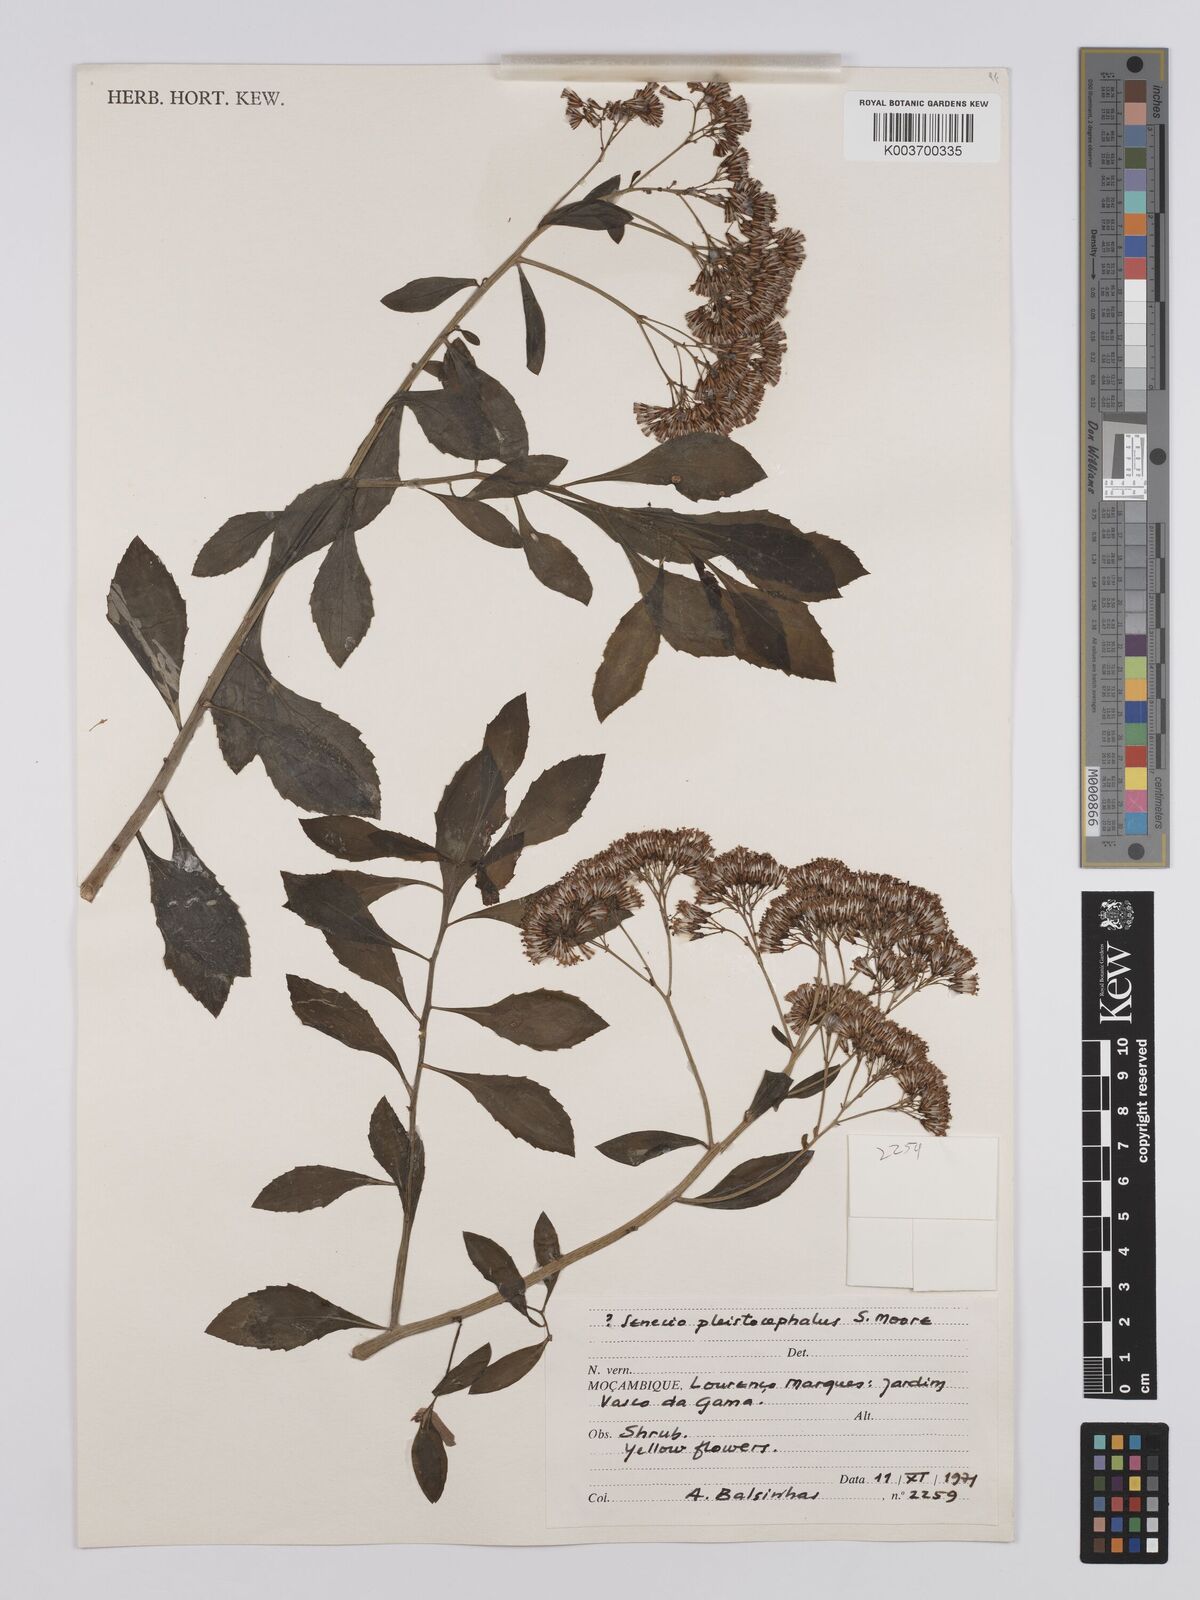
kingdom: Plantae
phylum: Tracheophyta
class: Magnoliopsida
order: Asterales
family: Asteraceae
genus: Senecio
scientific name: Senecio brachypodus
